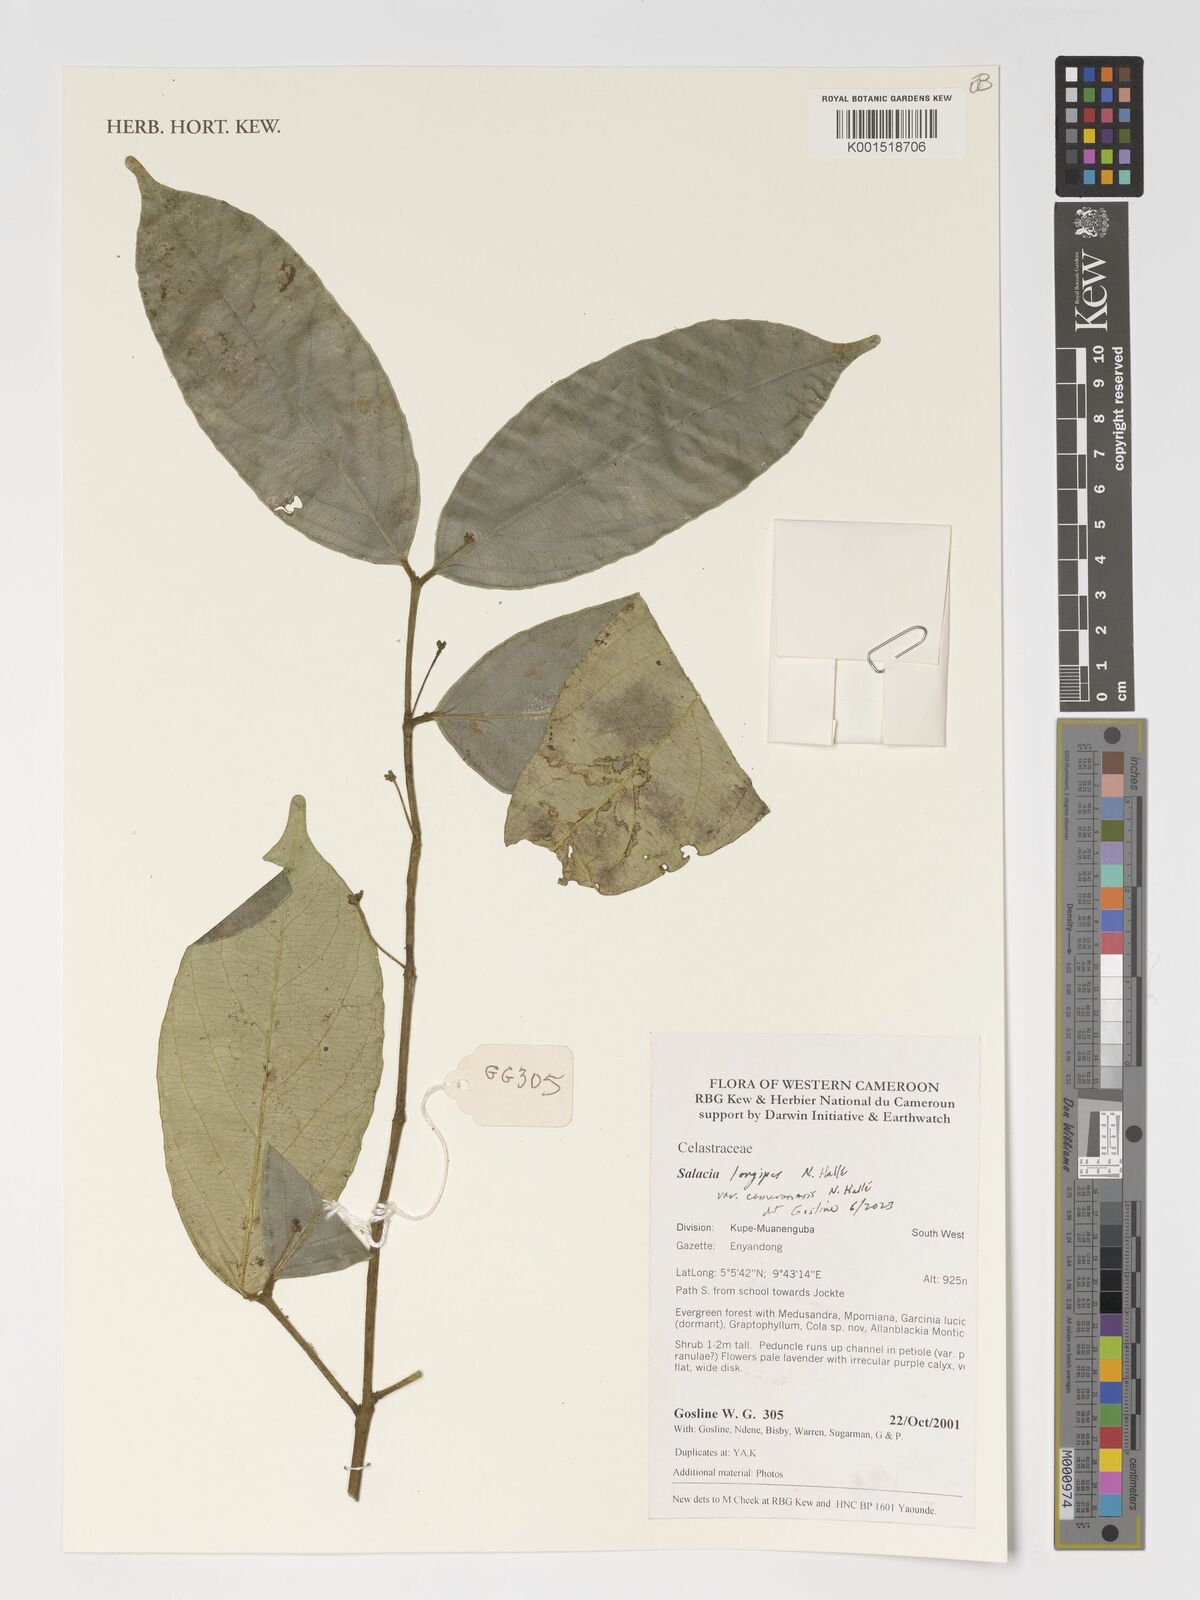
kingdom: Plantae
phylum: Tracheophyta
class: Magnoliopsida
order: Celastrales
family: Celastraceae
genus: Salacia
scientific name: Salacia longipes
